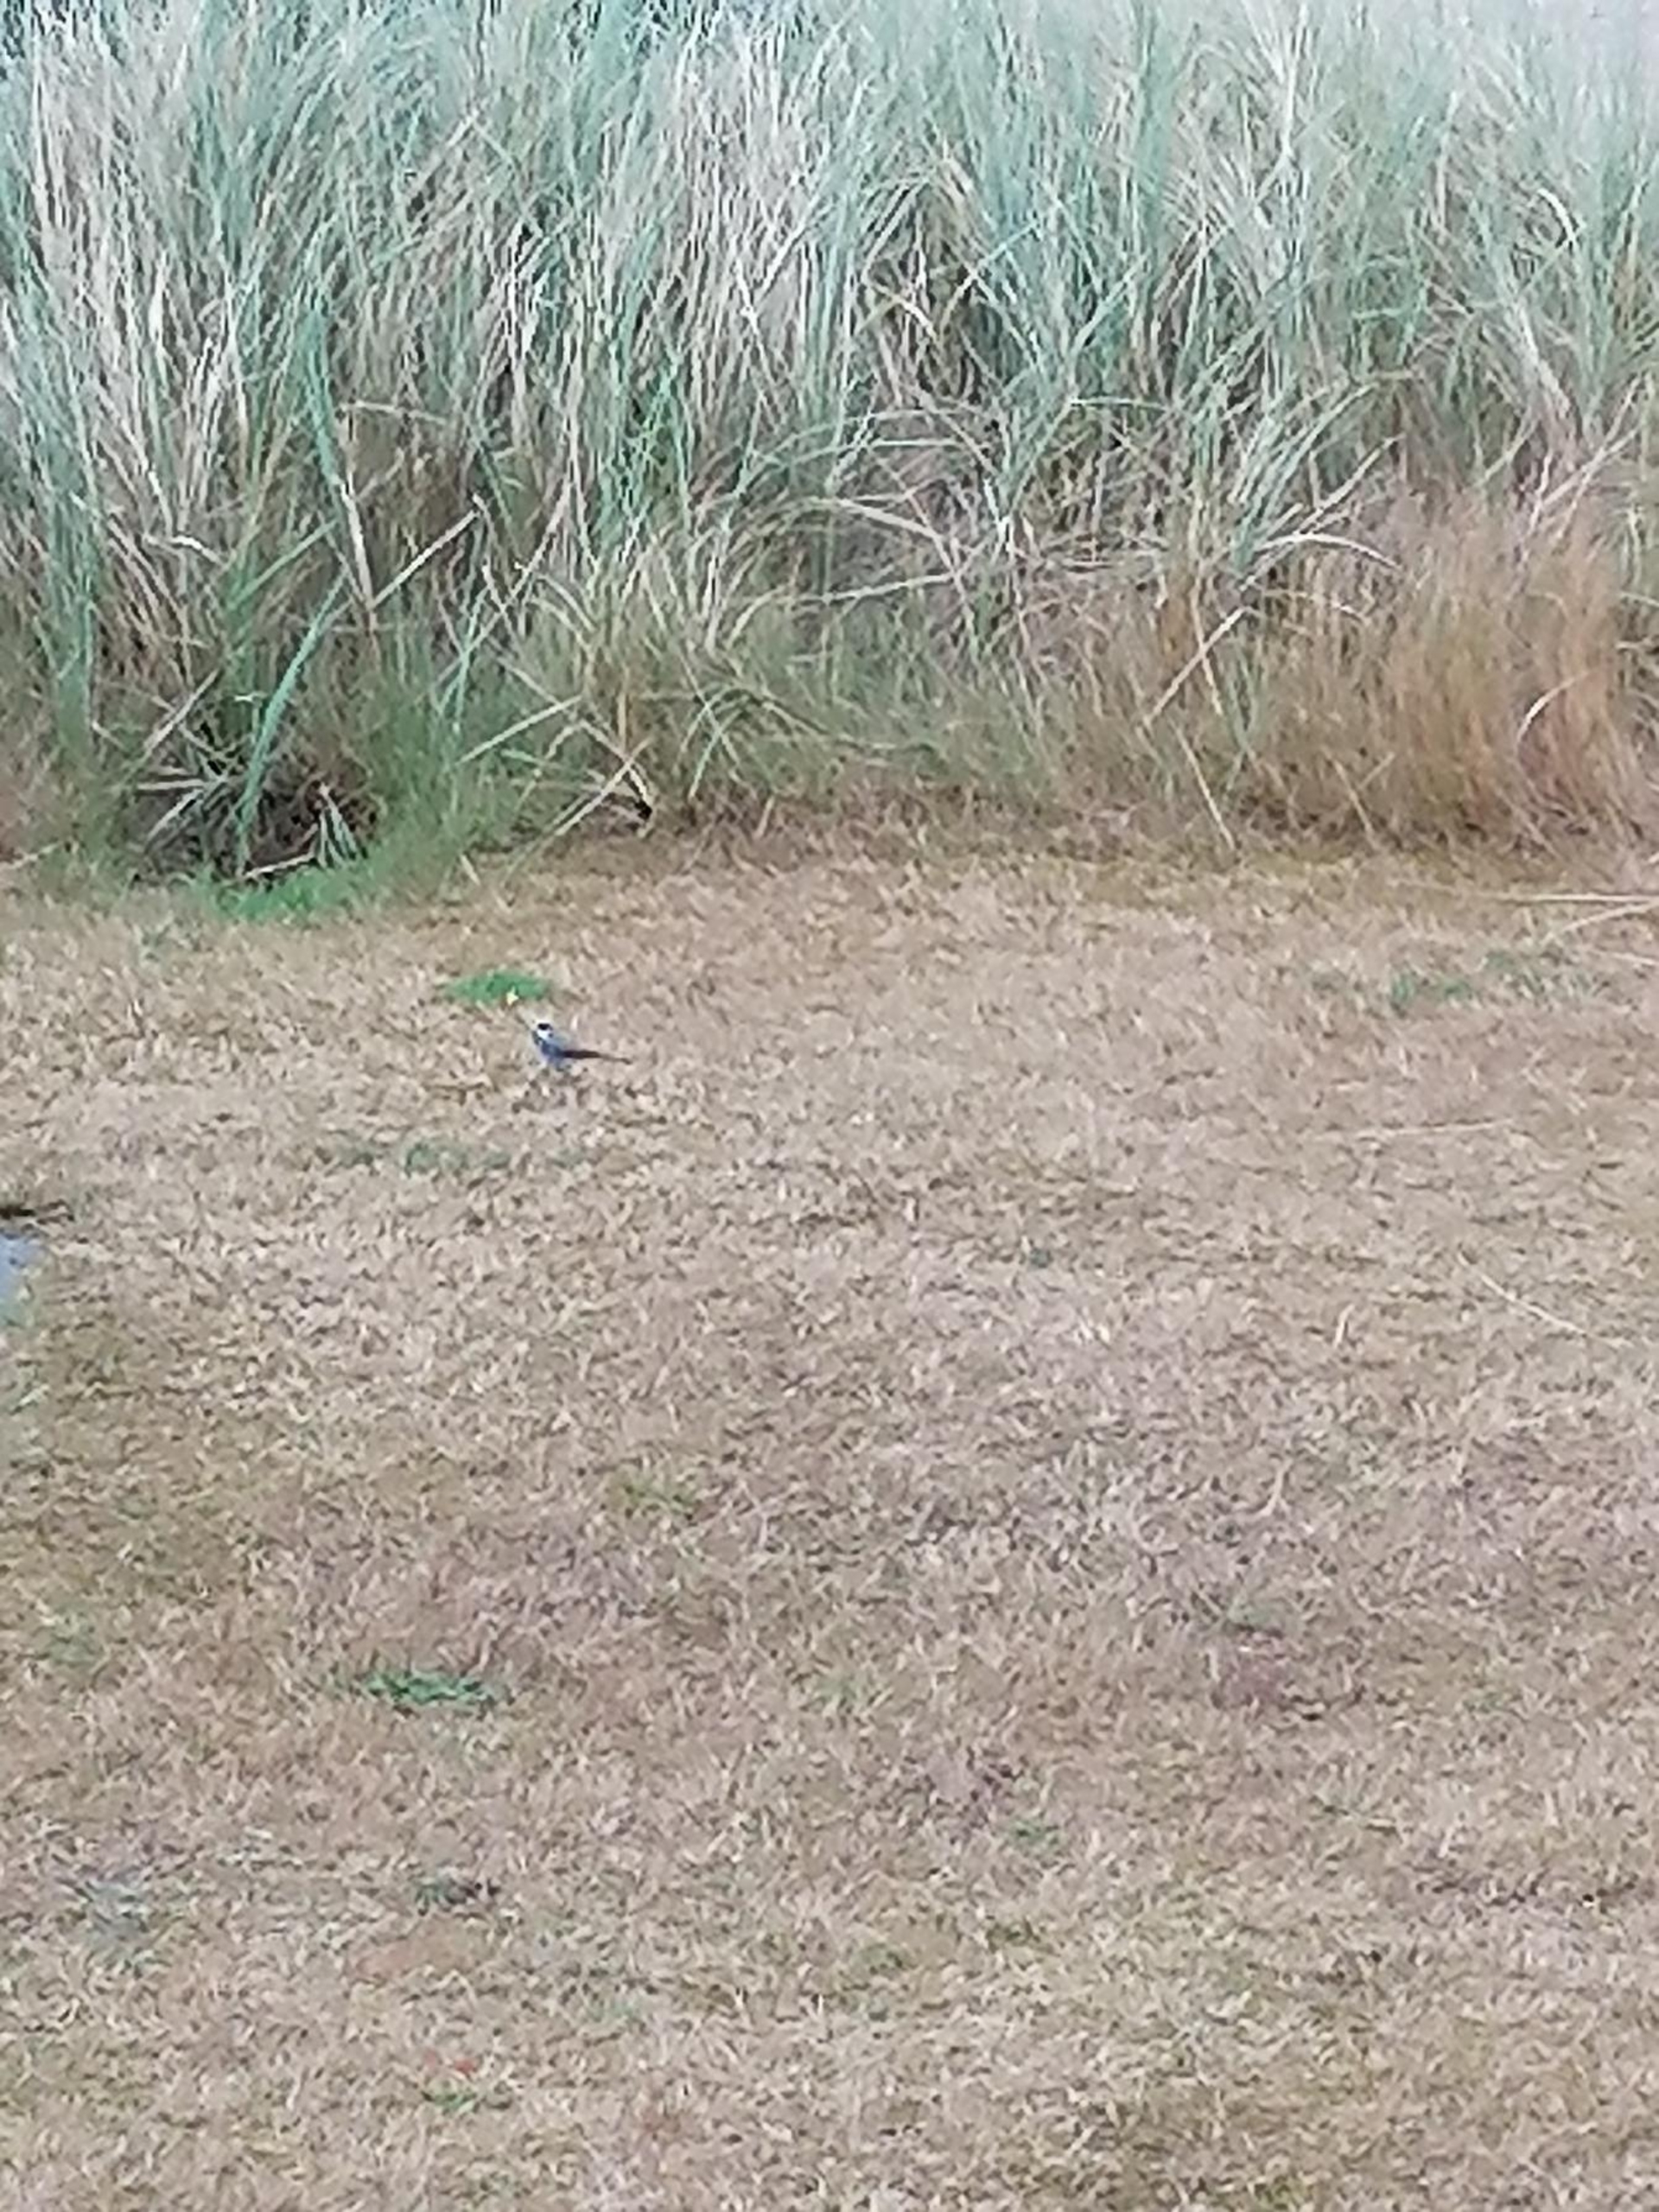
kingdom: Animalia
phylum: Chordata
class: Aves
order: Passeriformes
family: Motacillidae
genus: Motacilla
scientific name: Motacilla alba
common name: Hvid vipstjert
